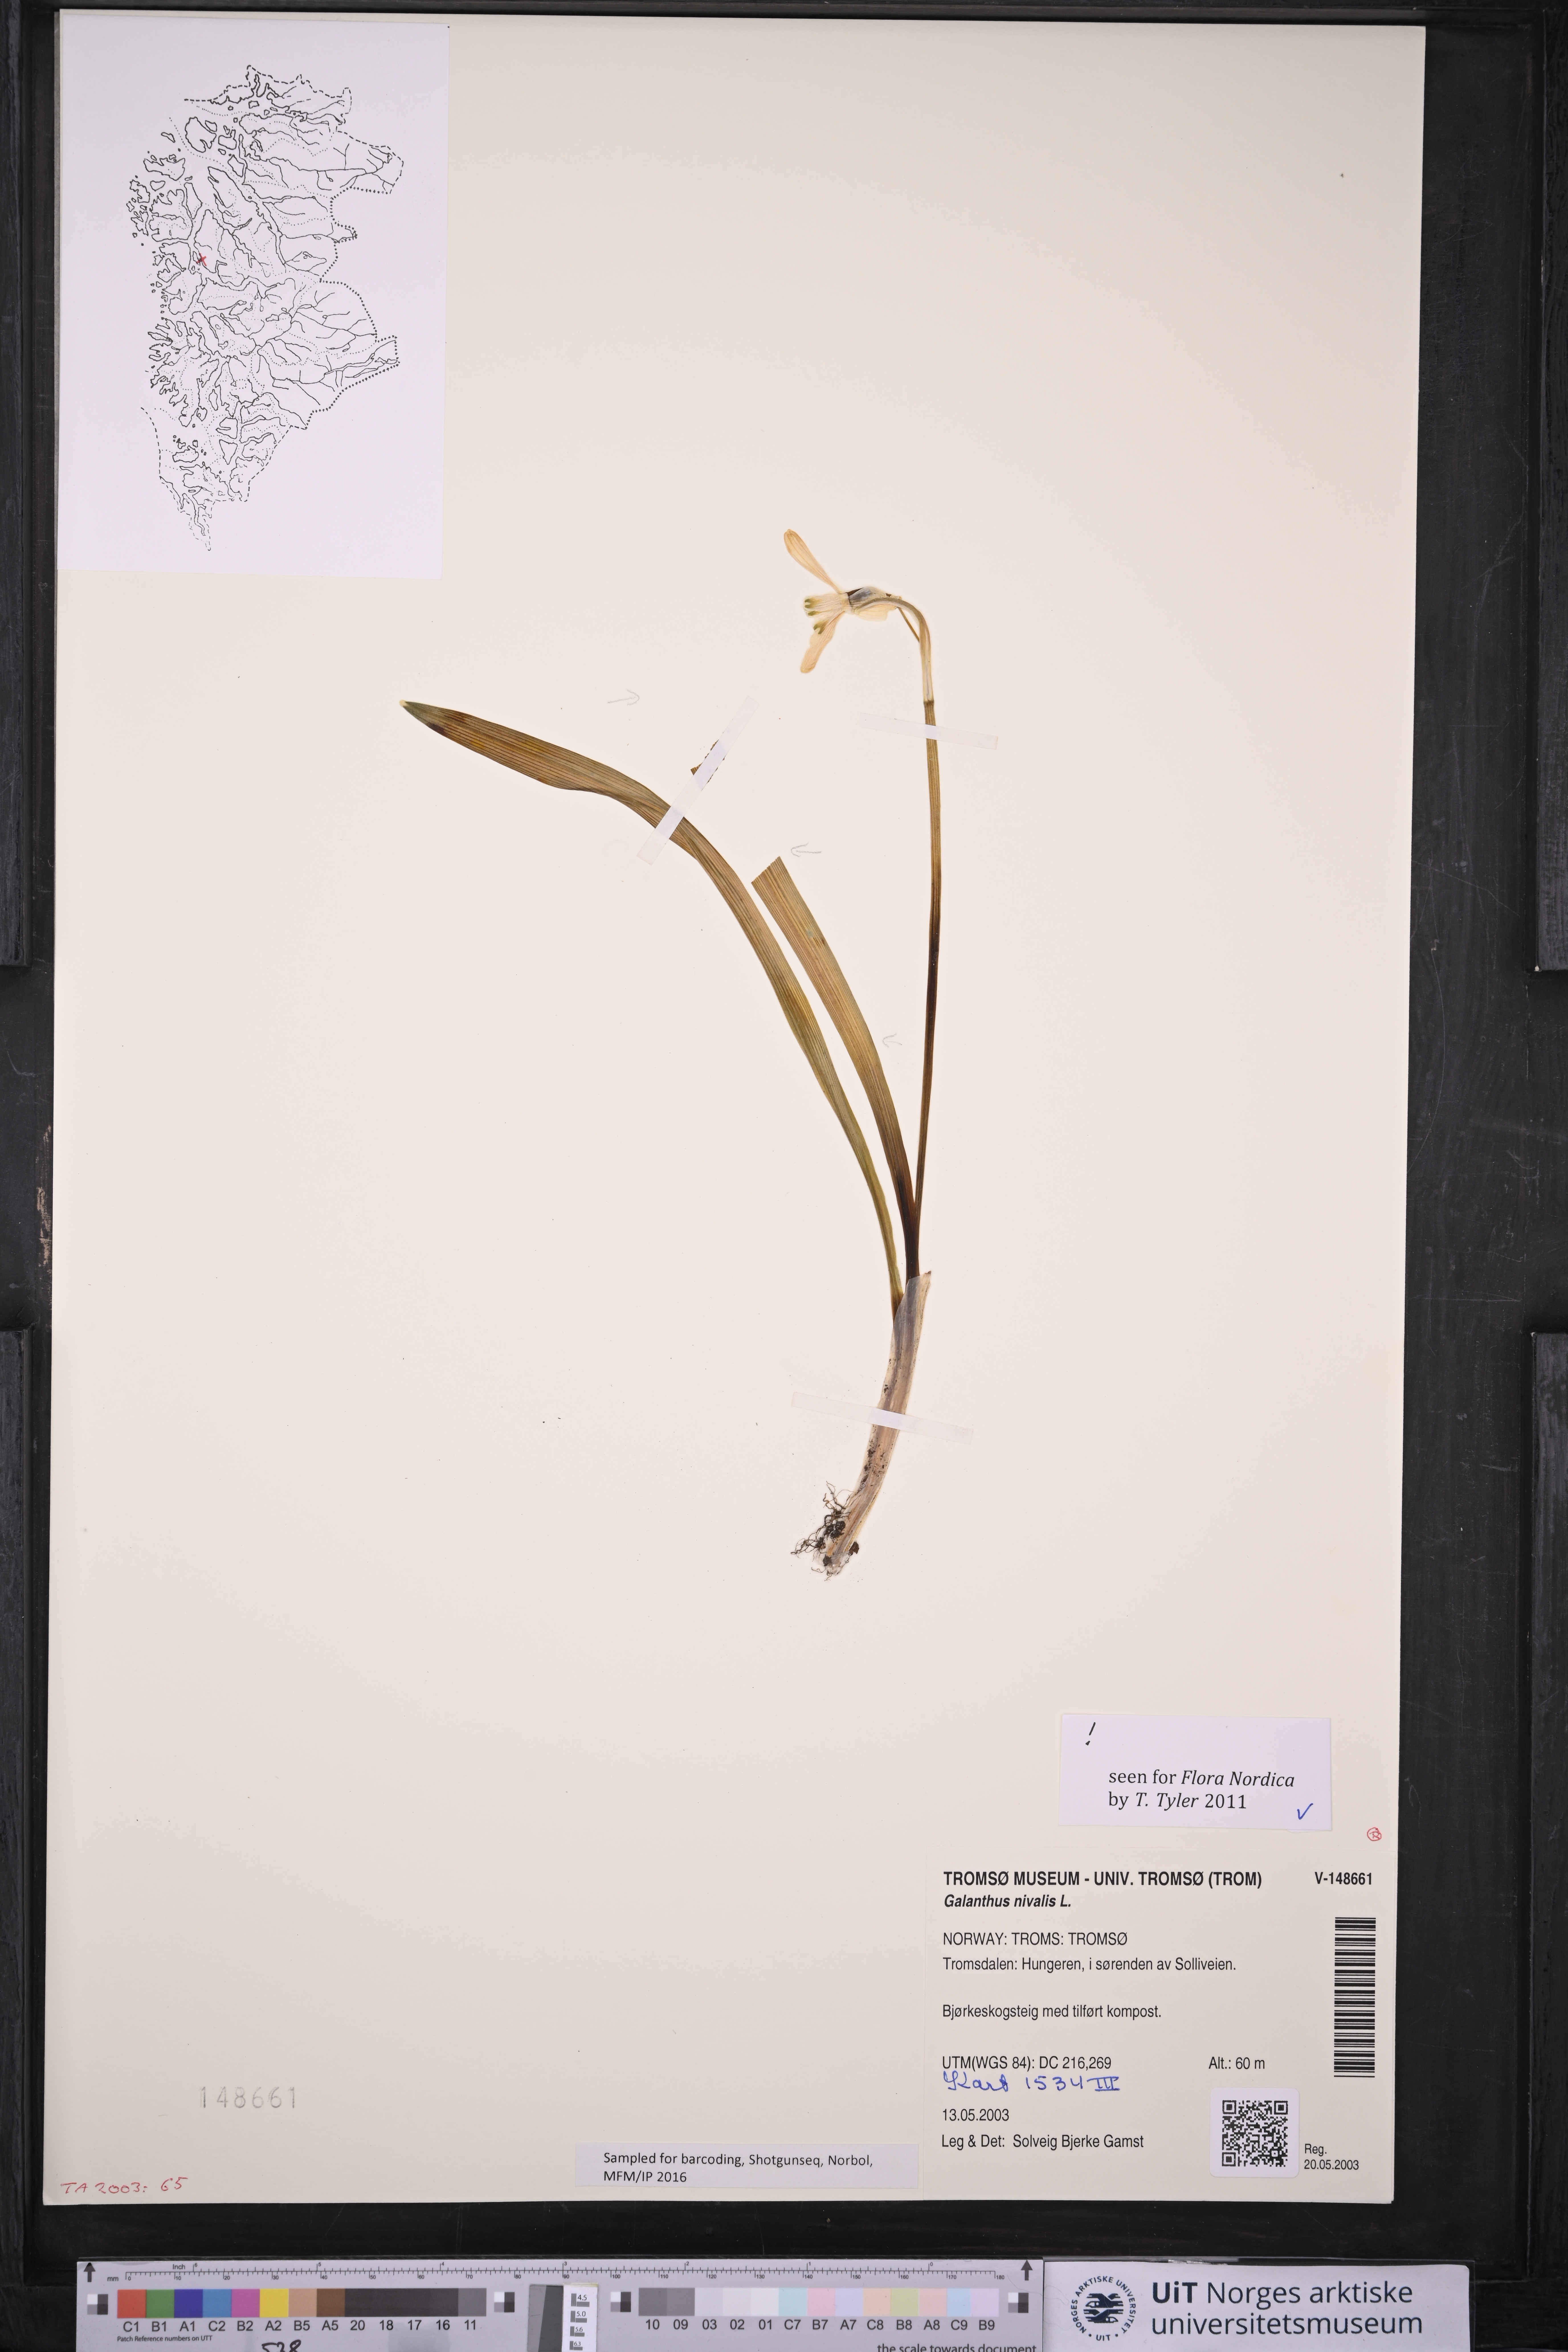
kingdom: Plantae
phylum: Tracheophyta
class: Liliopsida
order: Asparagales
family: Amaryllidaceae
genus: Galanthus
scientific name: Galanthus nivalis
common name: Snowdrop
